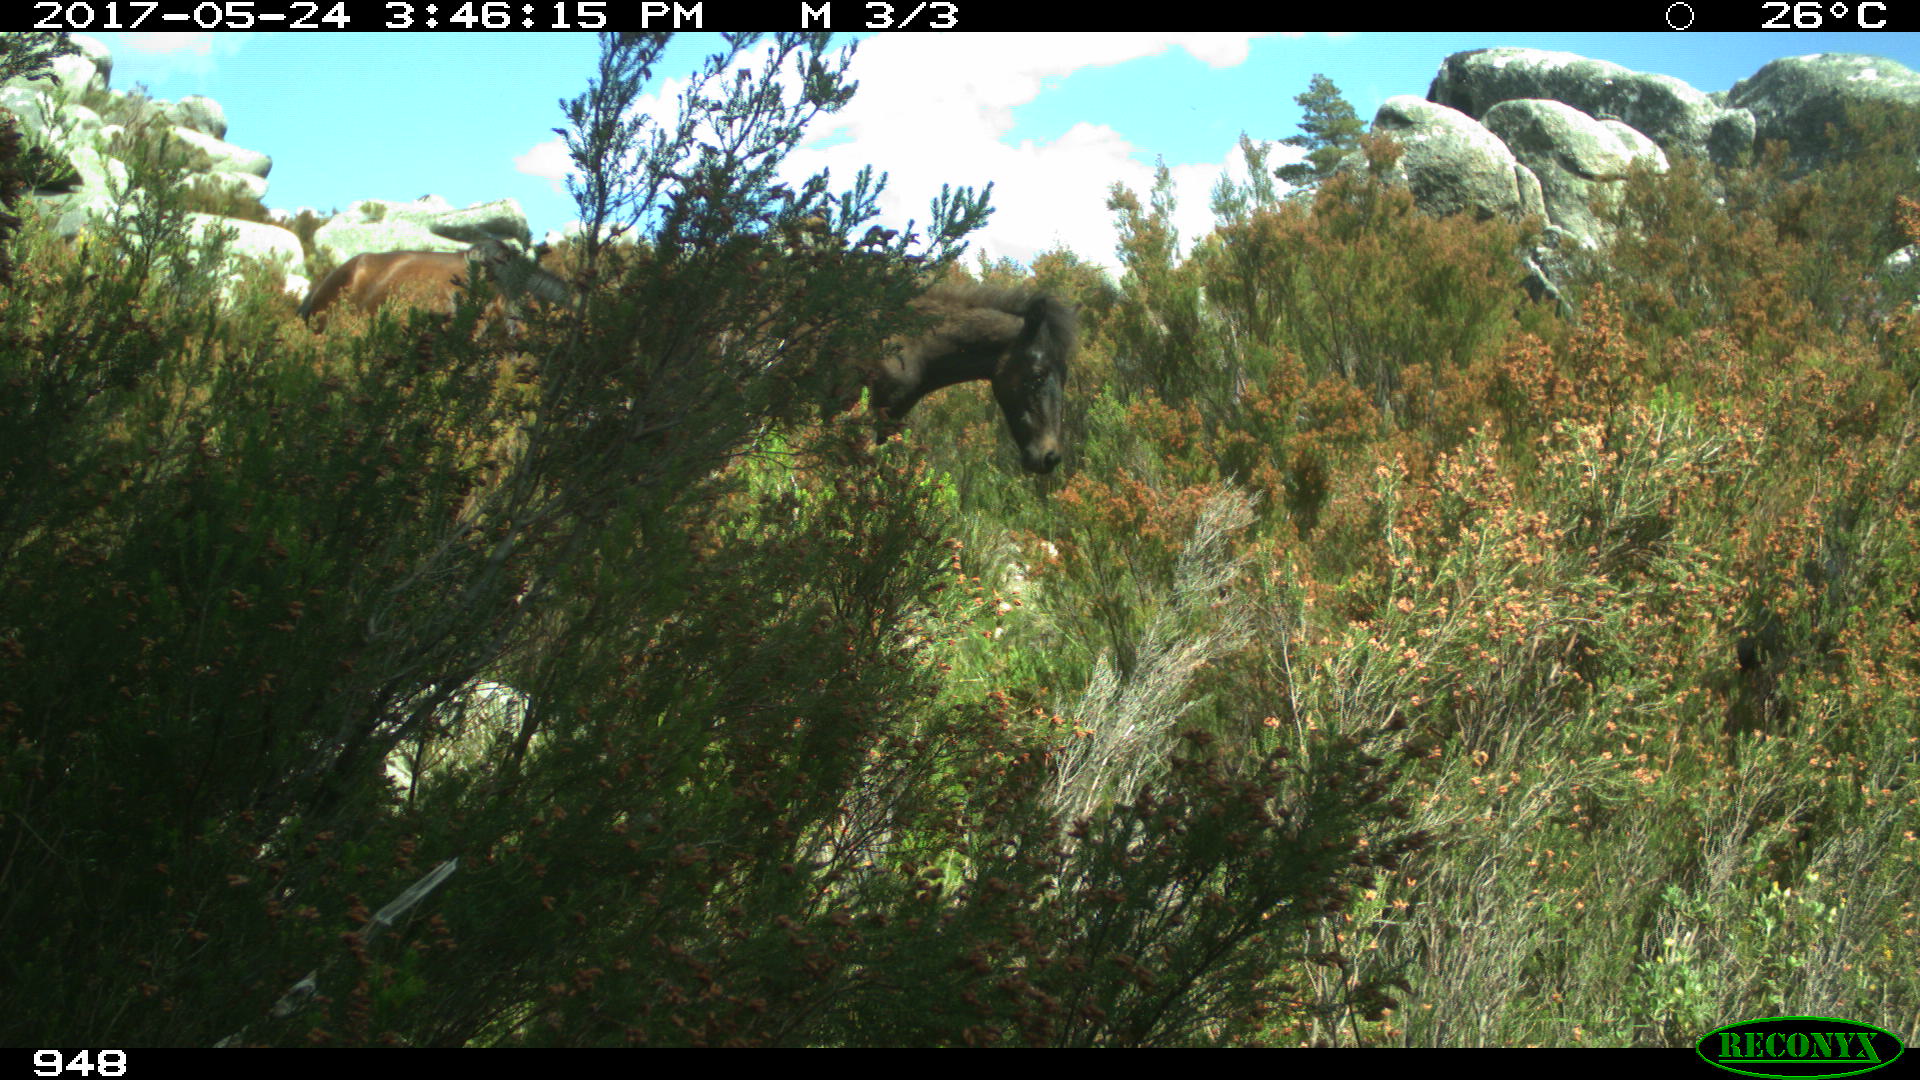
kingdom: Animalia
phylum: Chordata
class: Mammalia
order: Perissodactyla
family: Equidae
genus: Equus
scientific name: Equus caballus
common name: Horse
